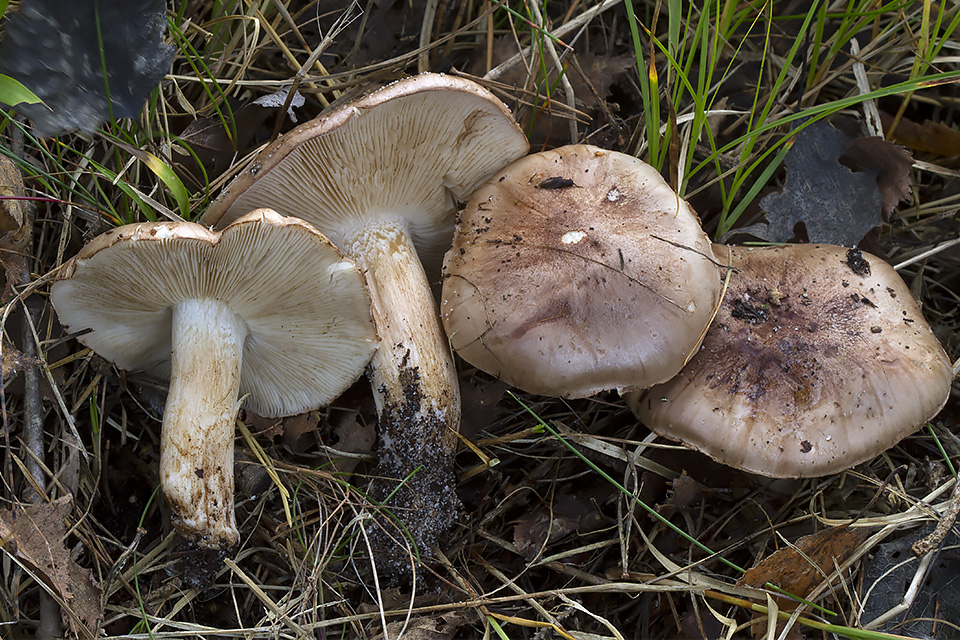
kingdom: Fungi
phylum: Basidiomycota
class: Agaricomycetes
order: Agaricales
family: Tricholomataceae
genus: Tricholoma
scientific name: Tricholoma albobrunneum
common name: kastanie-ridderhat
